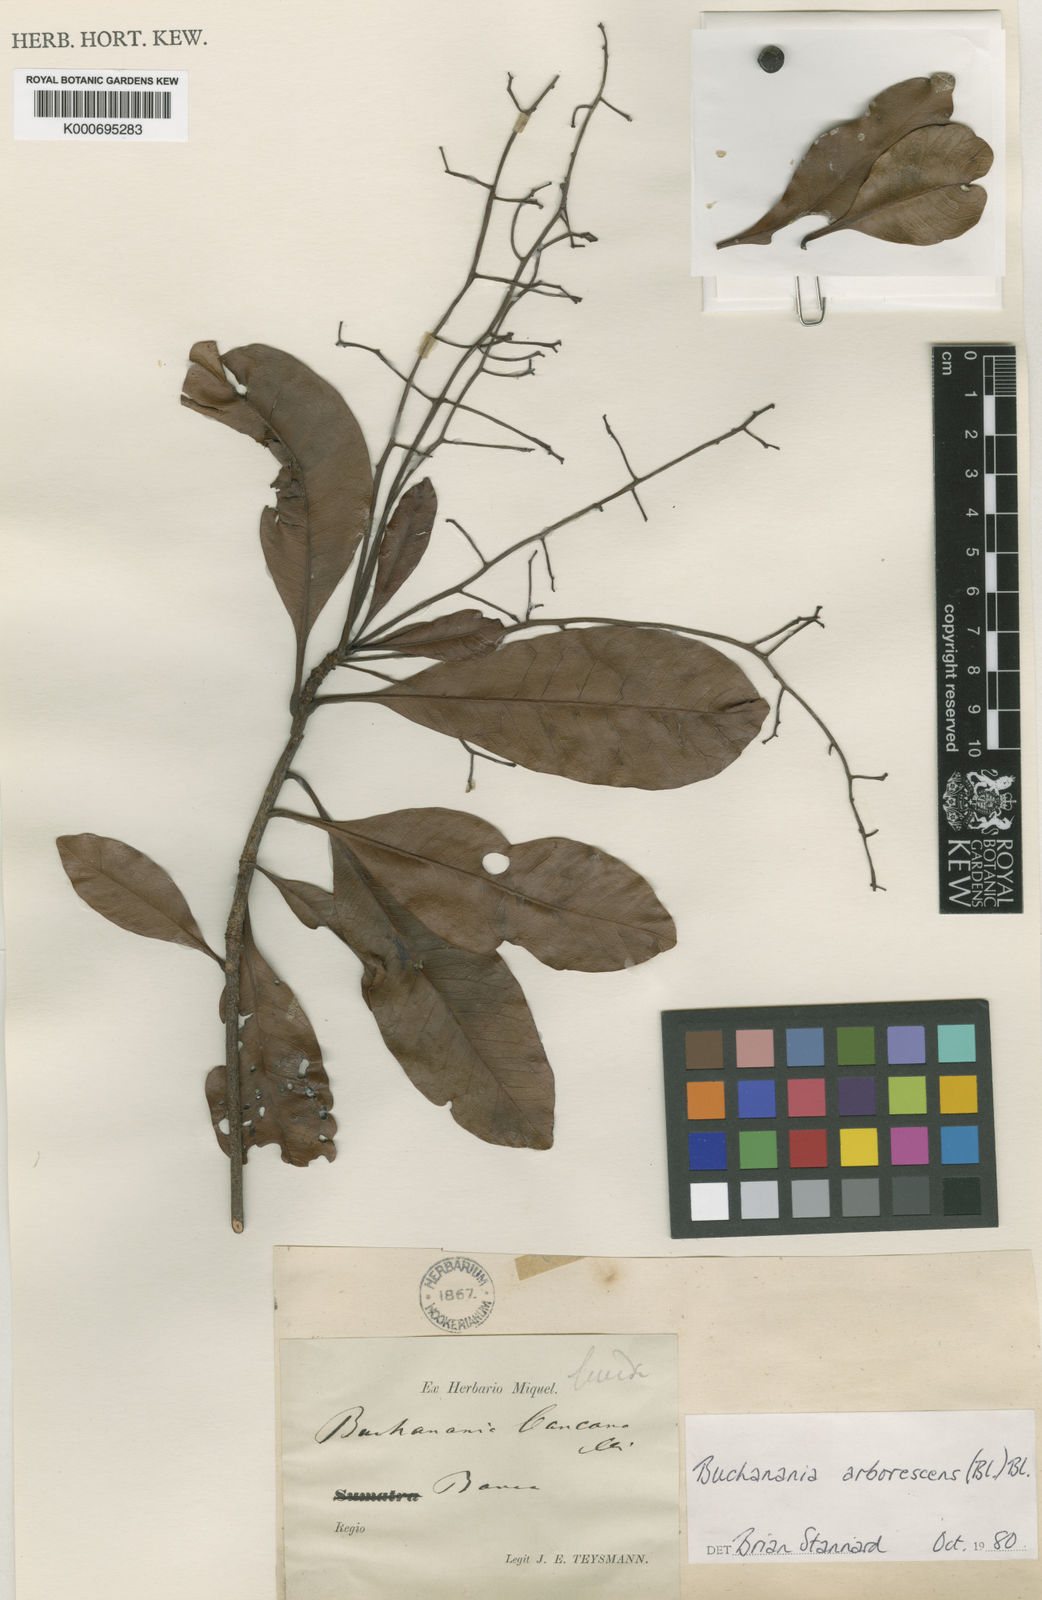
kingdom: Plantae
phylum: Tracheophyta
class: Magnoliopsida
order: Sapindales
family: Anacardiaceae
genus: Buchanania
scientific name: Buchanania arborescens
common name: Sparrow’s mango
